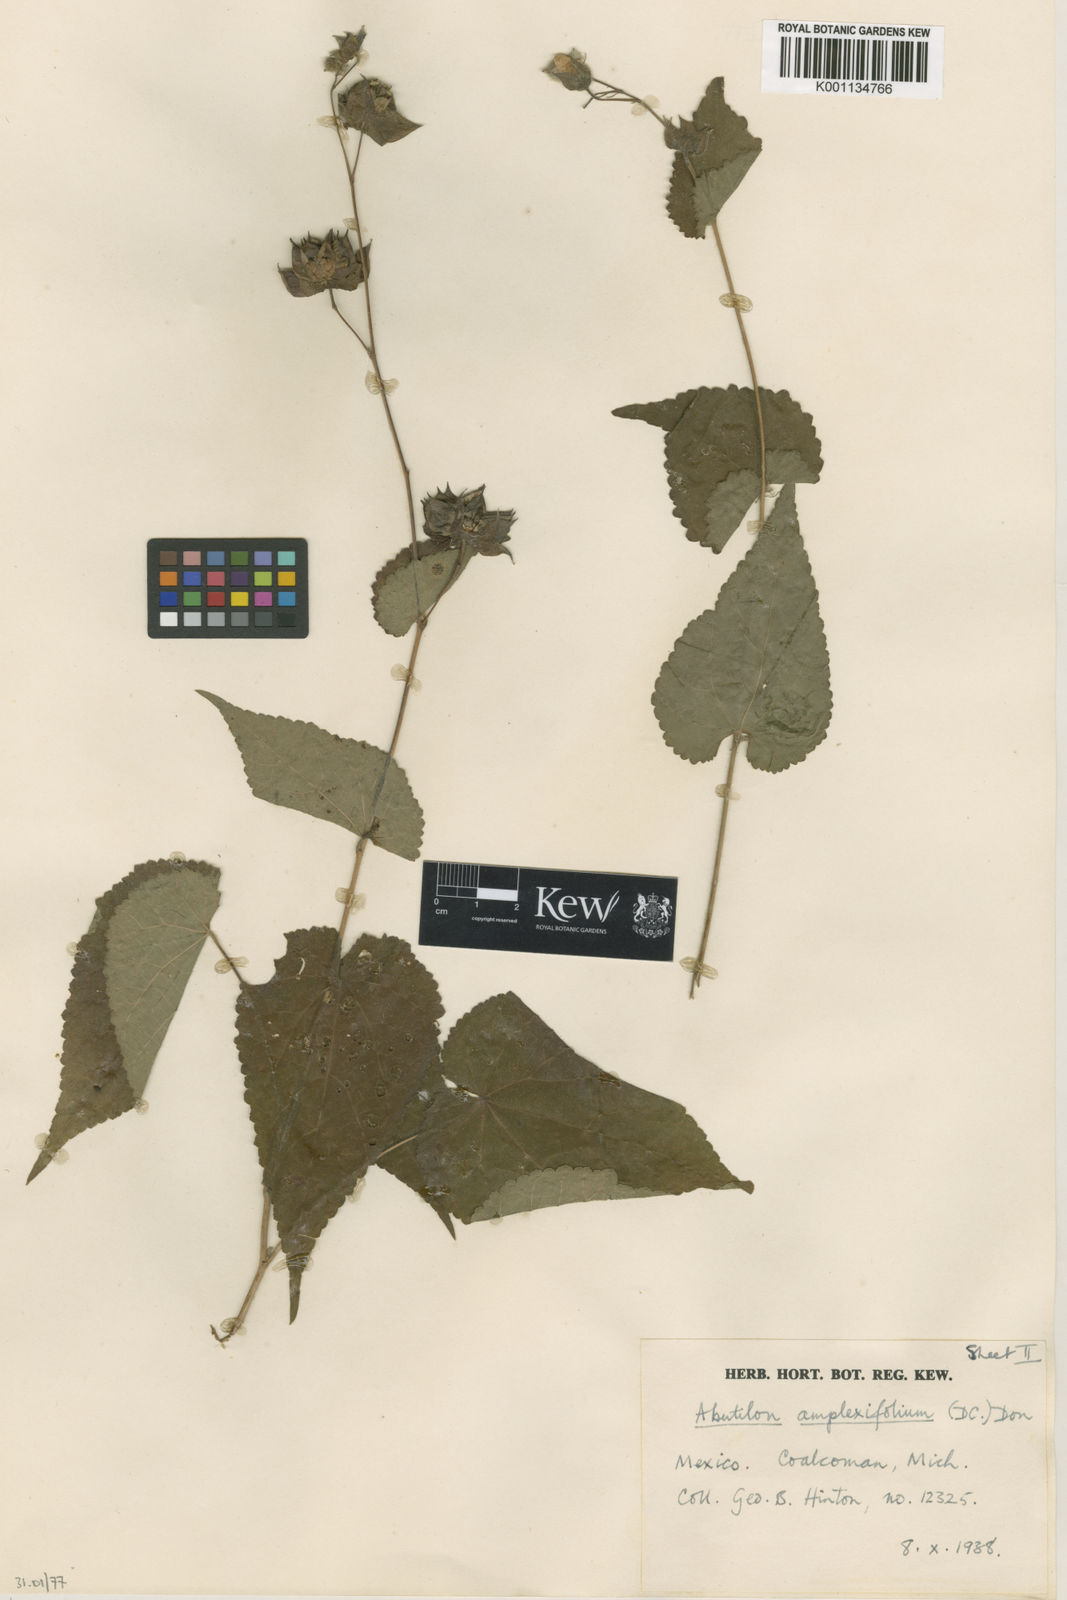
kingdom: Plantae
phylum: Tracheophyta
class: Magnoliopsida
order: Malvales
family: Malvaceae
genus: Hochreutinera
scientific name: Hochreutinera amplexifolia
